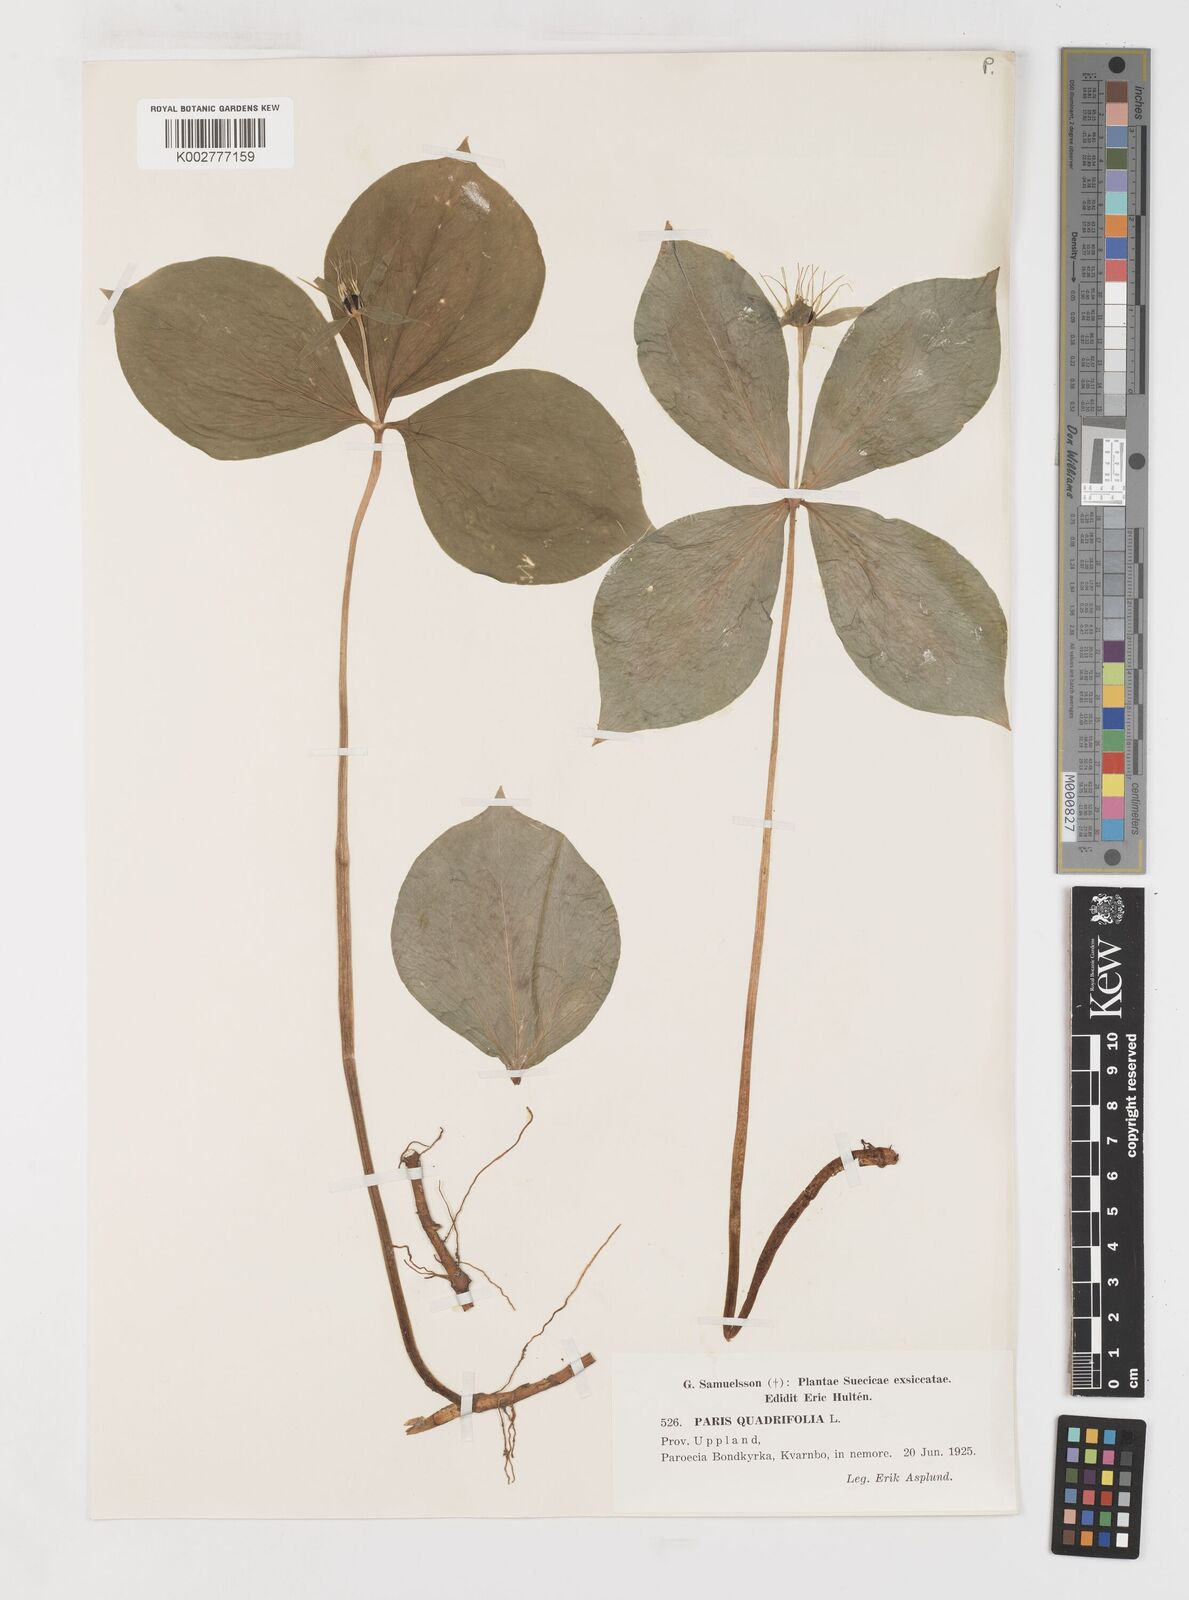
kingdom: Plantae
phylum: Tracheophyta
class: Liliopsida
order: Liliales
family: Melanthiaceae
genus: Paris
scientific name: Paris quadrifolia
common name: Herb-paris
